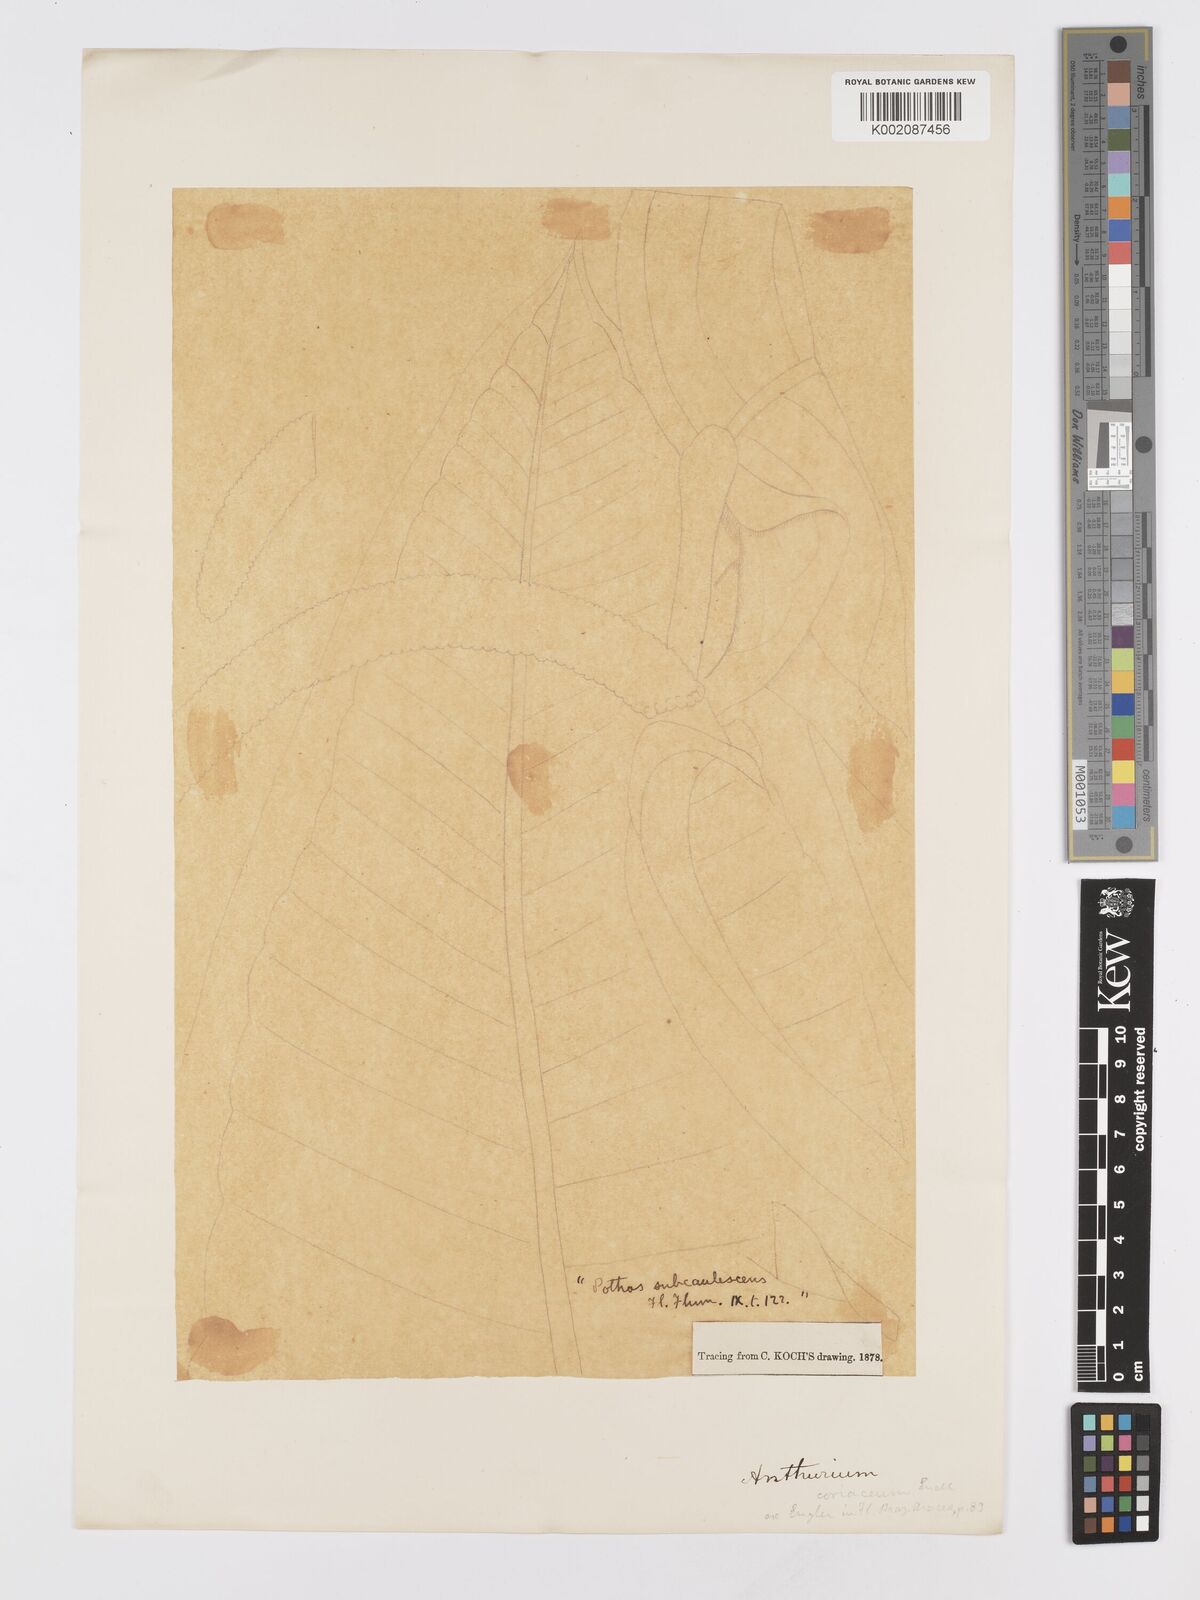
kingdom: Plantae
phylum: Tracheophyta
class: Liliopsida
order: Alismatales
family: Araceae
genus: Anthurium
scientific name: Anthurium
